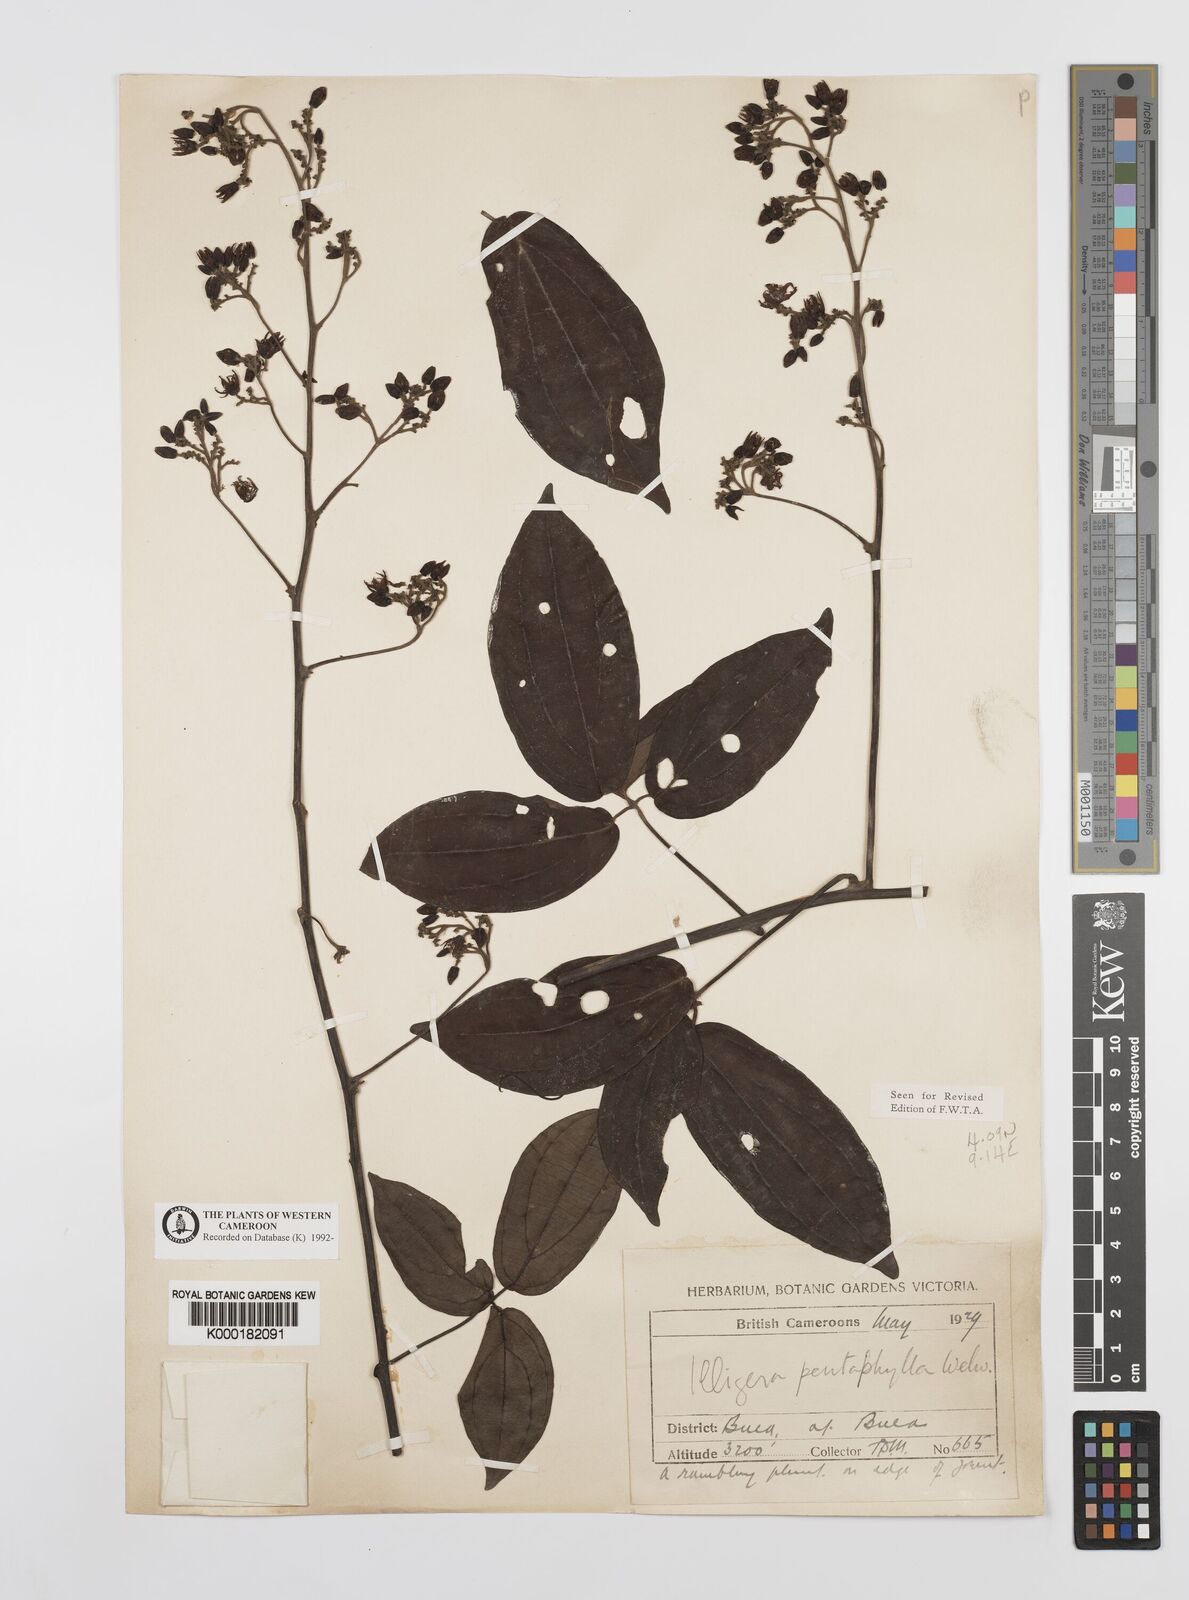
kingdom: Plantae
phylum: Tracheophyta
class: Magnoliopsida
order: Laurales
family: Hernandiaceae
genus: Illigera
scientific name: Illigera pentaphylla
